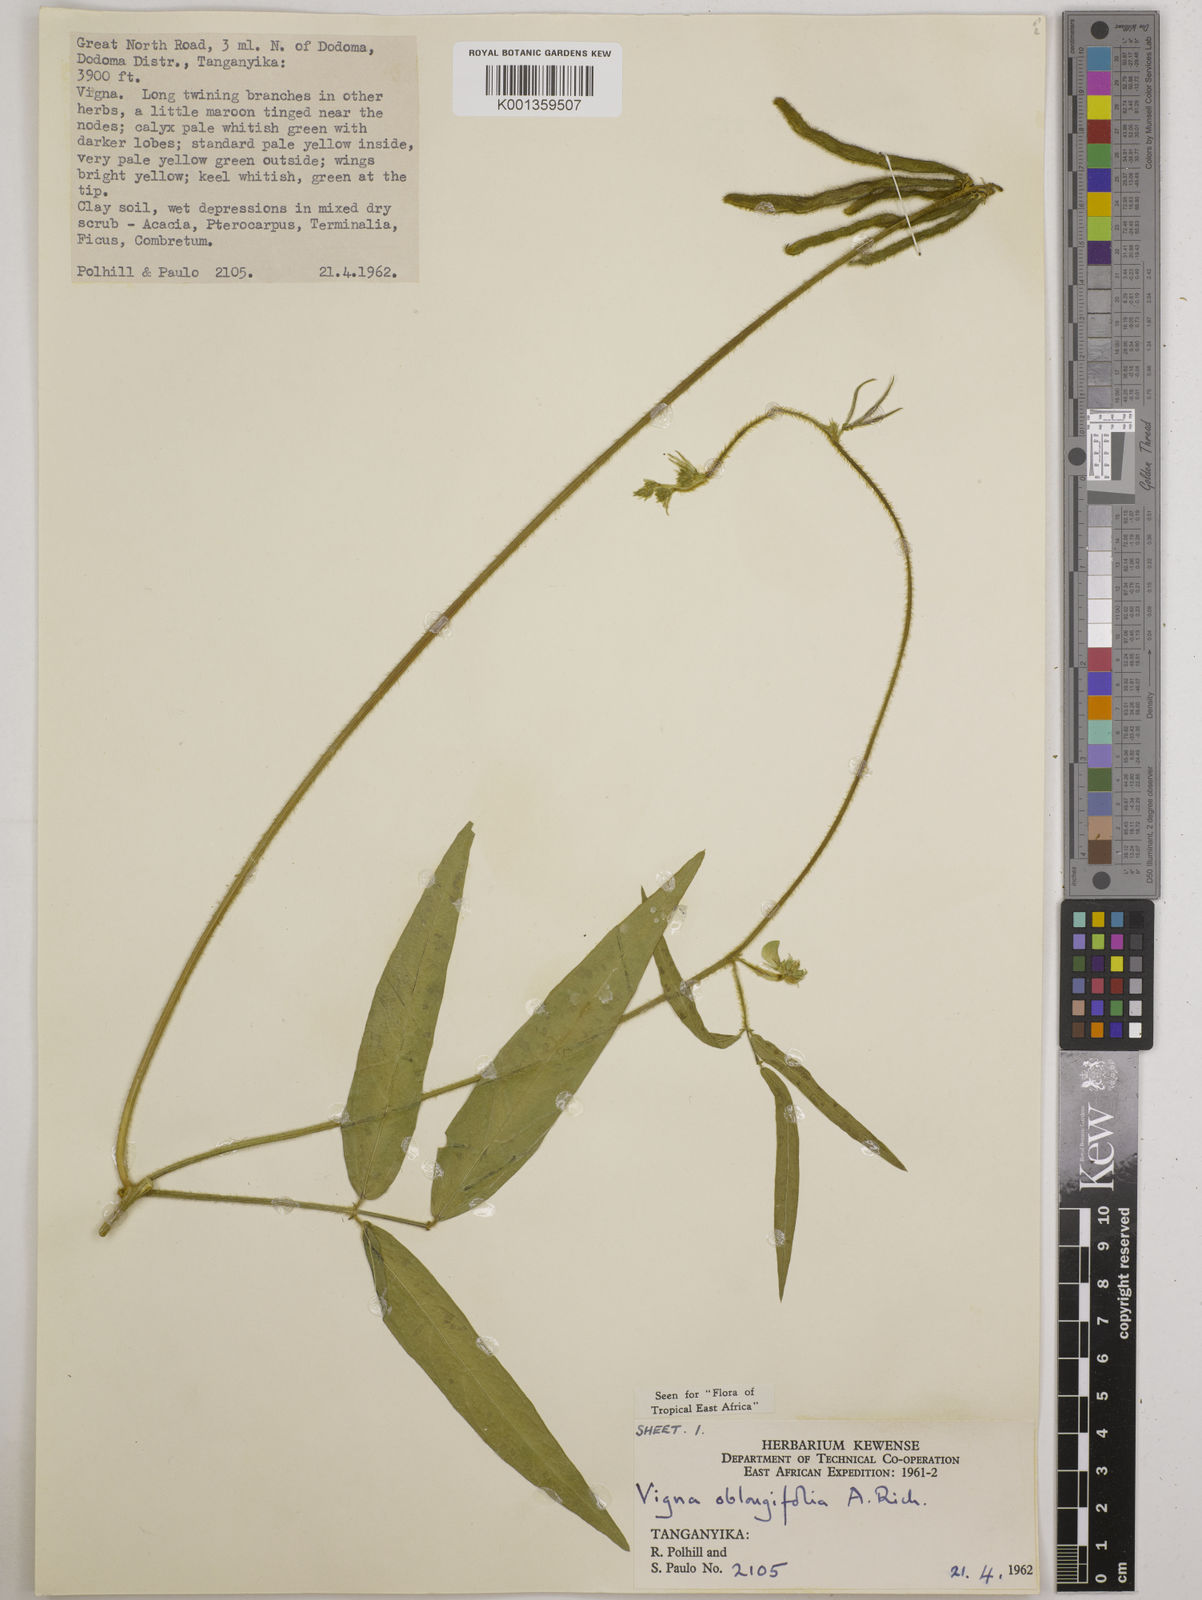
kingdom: Plantae
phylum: Tracheophyta
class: Magnoliopsida
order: Fabales
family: Fabaceae
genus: Vigna
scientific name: Vigna oblongifolia
